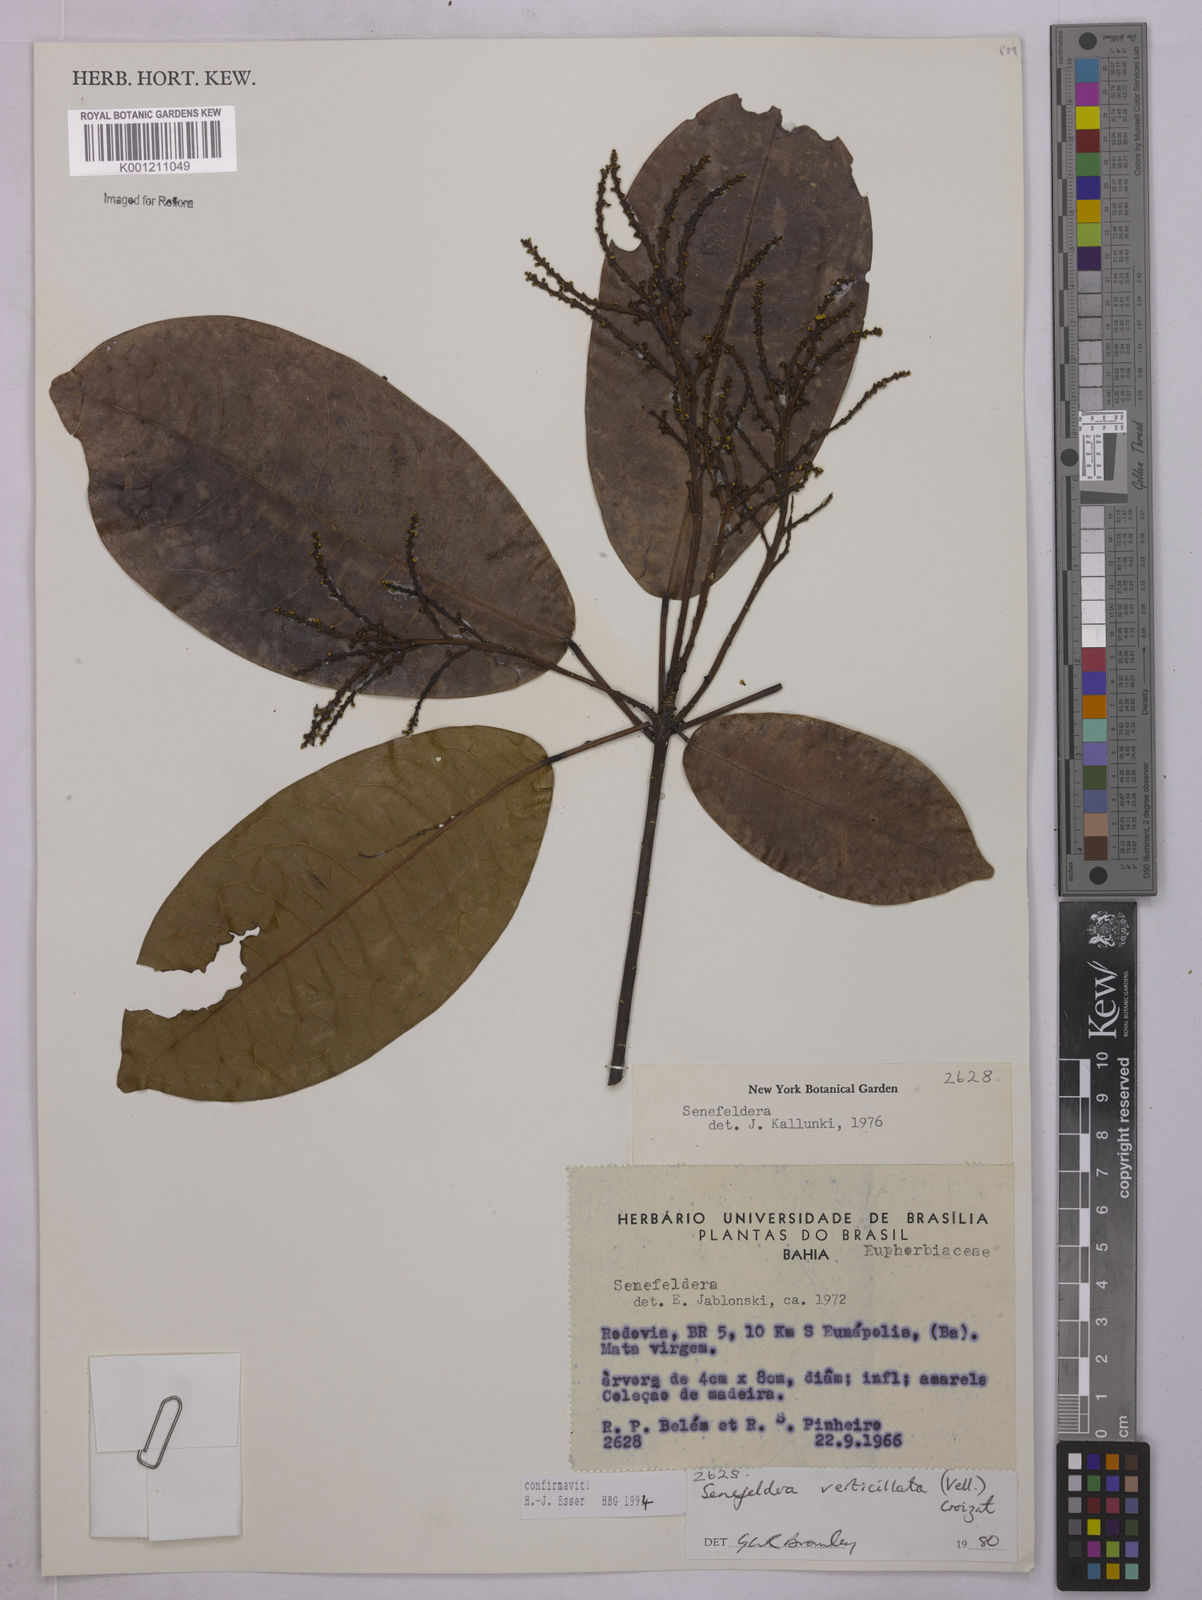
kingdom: Plantae
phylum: Tracheophyta
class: Magnoliopsida
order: Malpighiales
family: Euphorbiaceae
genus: Senefeldera
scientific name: Senefeldera verticillata
